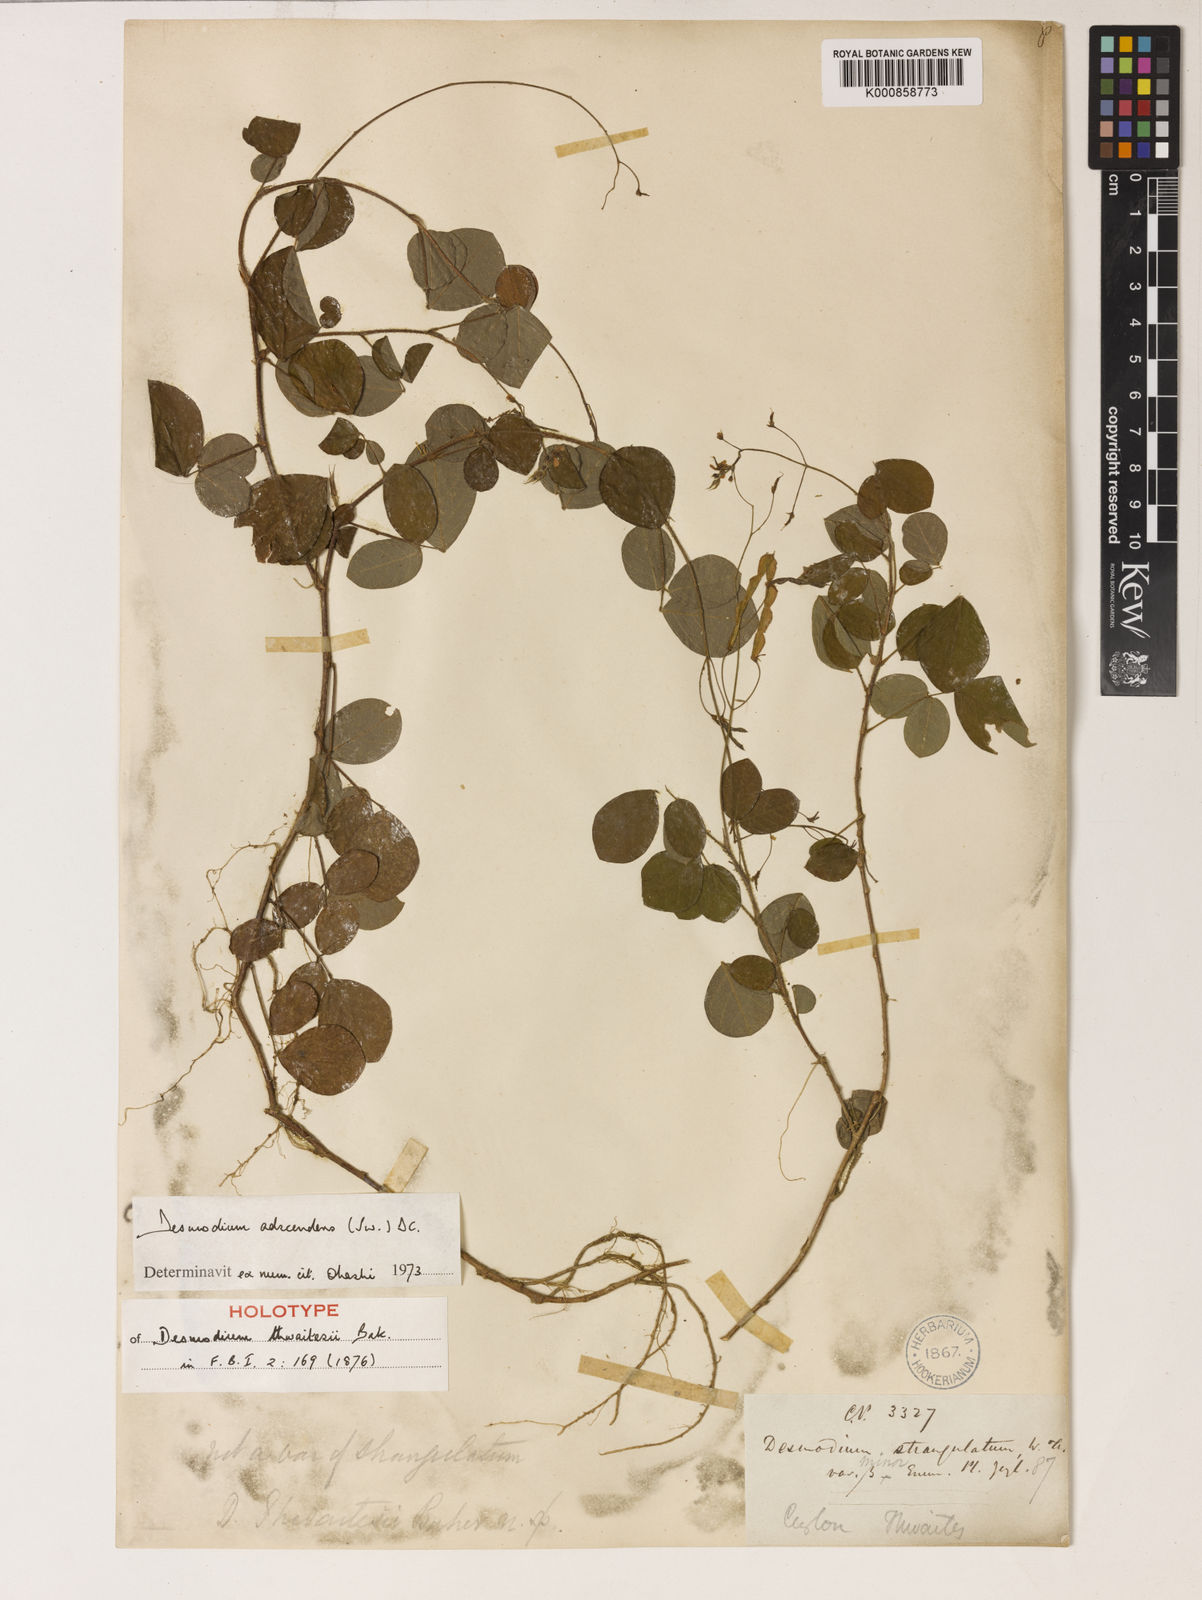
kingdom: Plantae
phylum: Tracheophyta
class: Magnoliopsida
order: Fabales
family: Fabaceae
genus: Grona
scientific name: Grona adscendens
